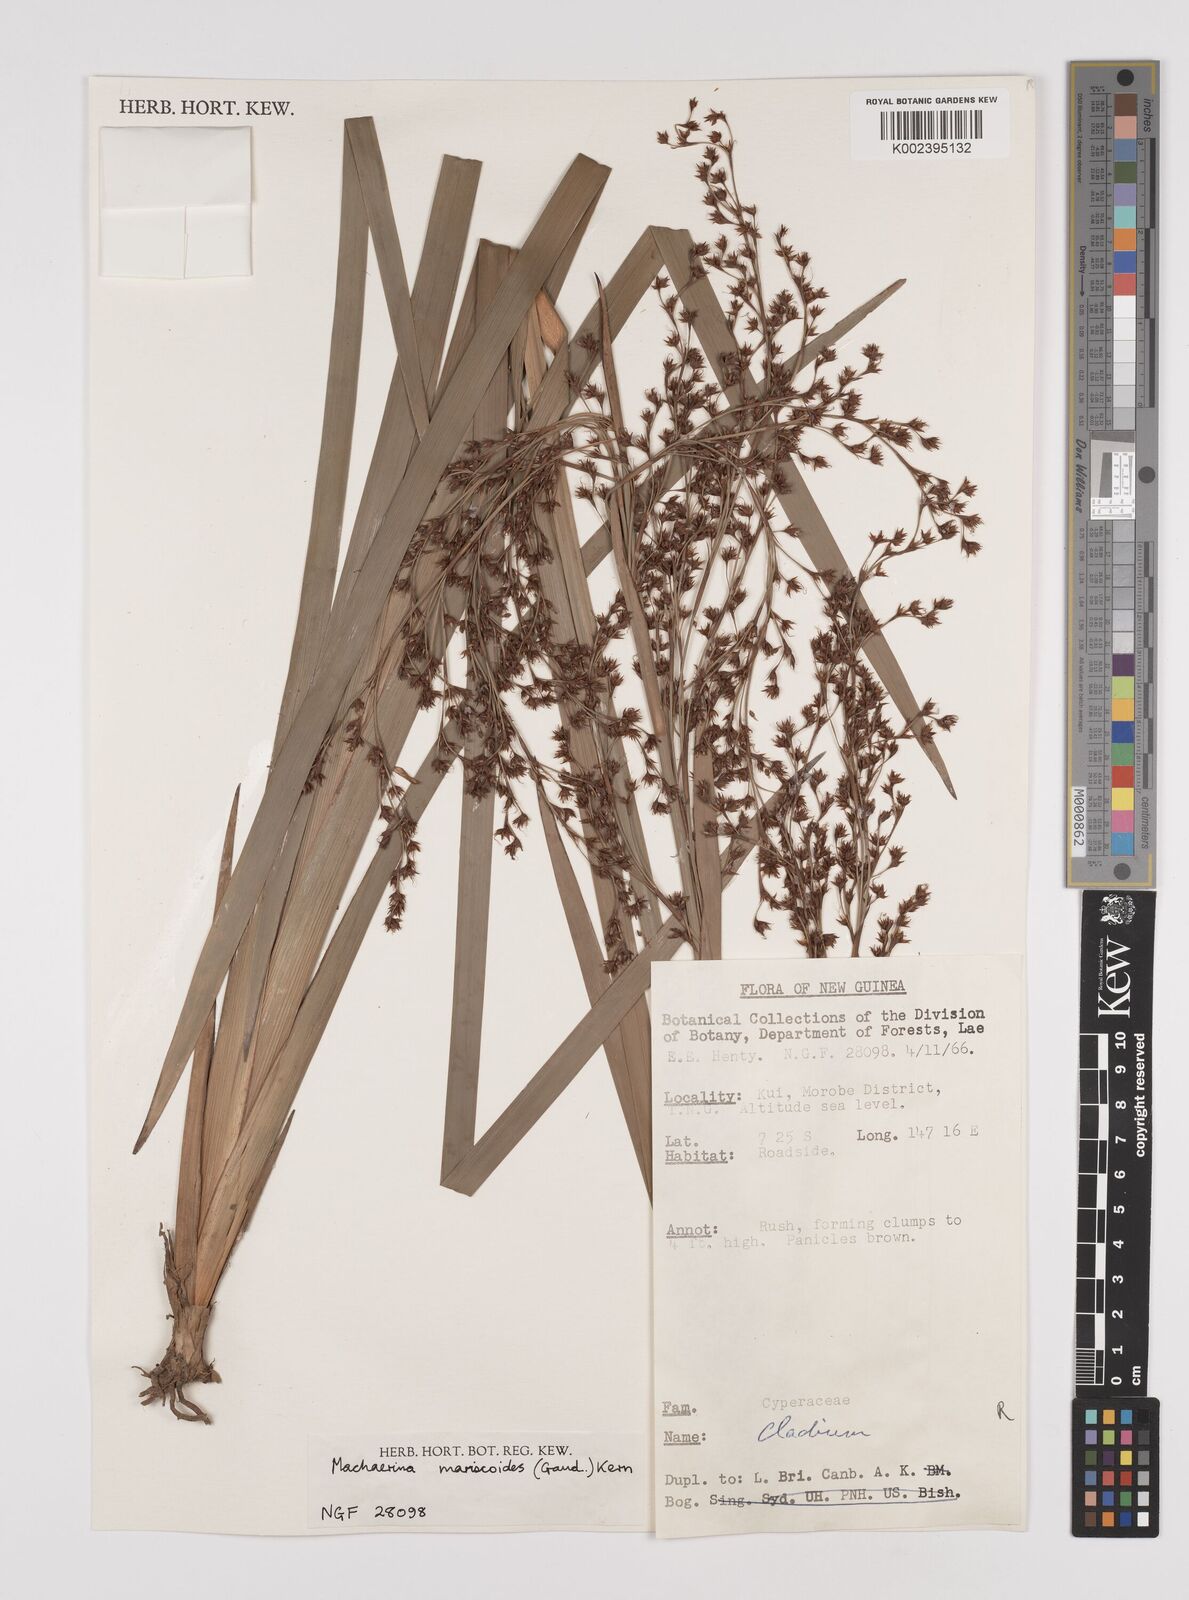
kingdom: Plantae
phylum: Tracheophyta
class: Liliopsida
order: Poales
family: Cyperaceae
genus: Machaerina
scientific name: Machaerina mariscoides
